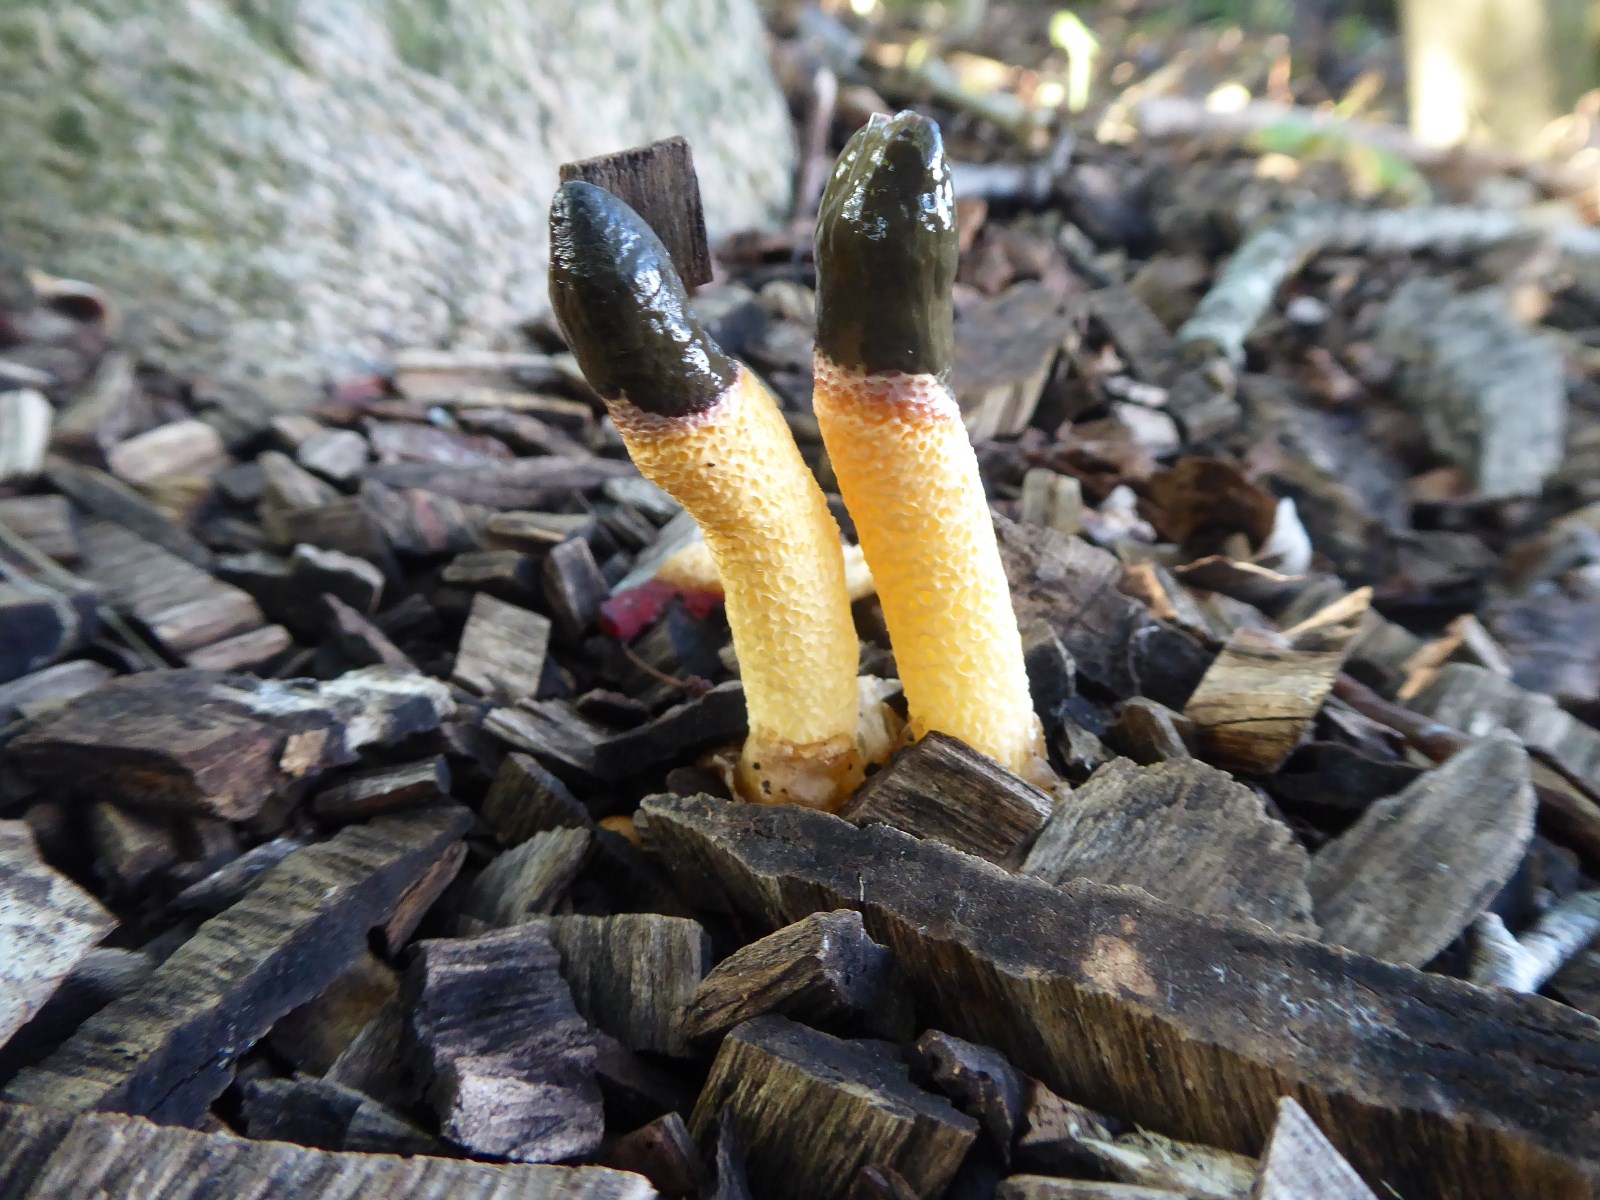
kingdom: Fungi
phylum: Basidiomycota
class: Agaricomycetes
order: Phallales
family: Phallaceae
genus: Mutinus
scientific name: Mutinus caninus
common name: hunde-stinksvamp
